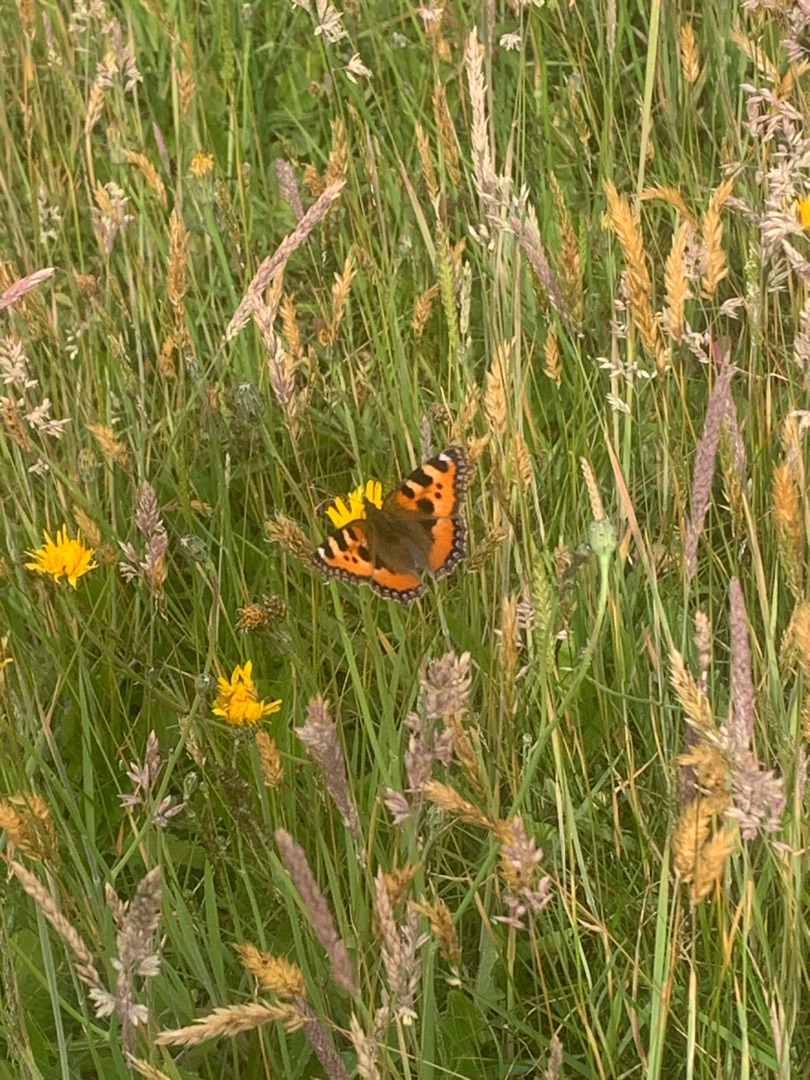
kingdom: Animalia
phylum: Arthropoda
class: Insecta
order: Lepidoptera
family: Nymphalidae
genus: Aglais
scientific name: Aglais urticae
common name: Nældens takvinge
